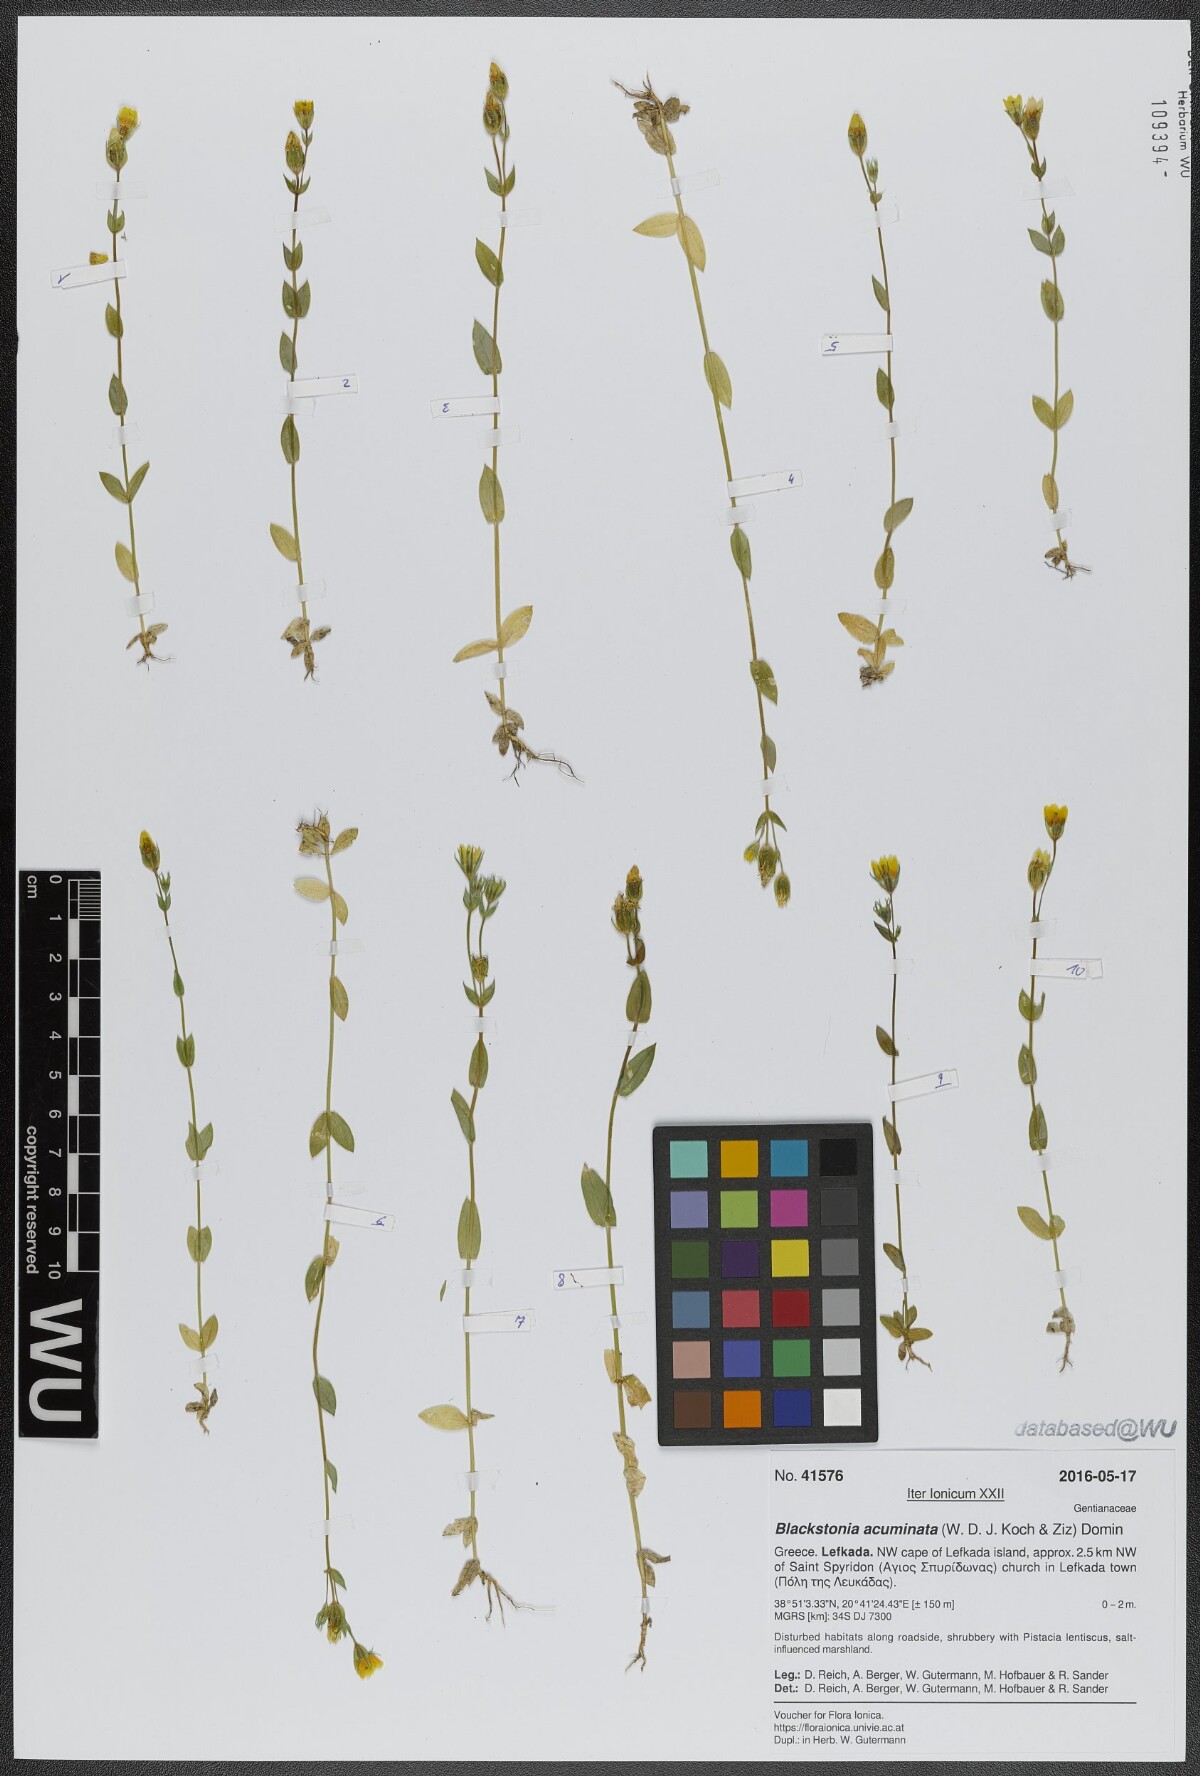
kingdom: Plantae
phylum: Tracheophyta
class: Magnoliopsida
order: Gentianales
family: Gentianaceae
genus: Blackstonia
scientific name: Blackstonia acuminata
